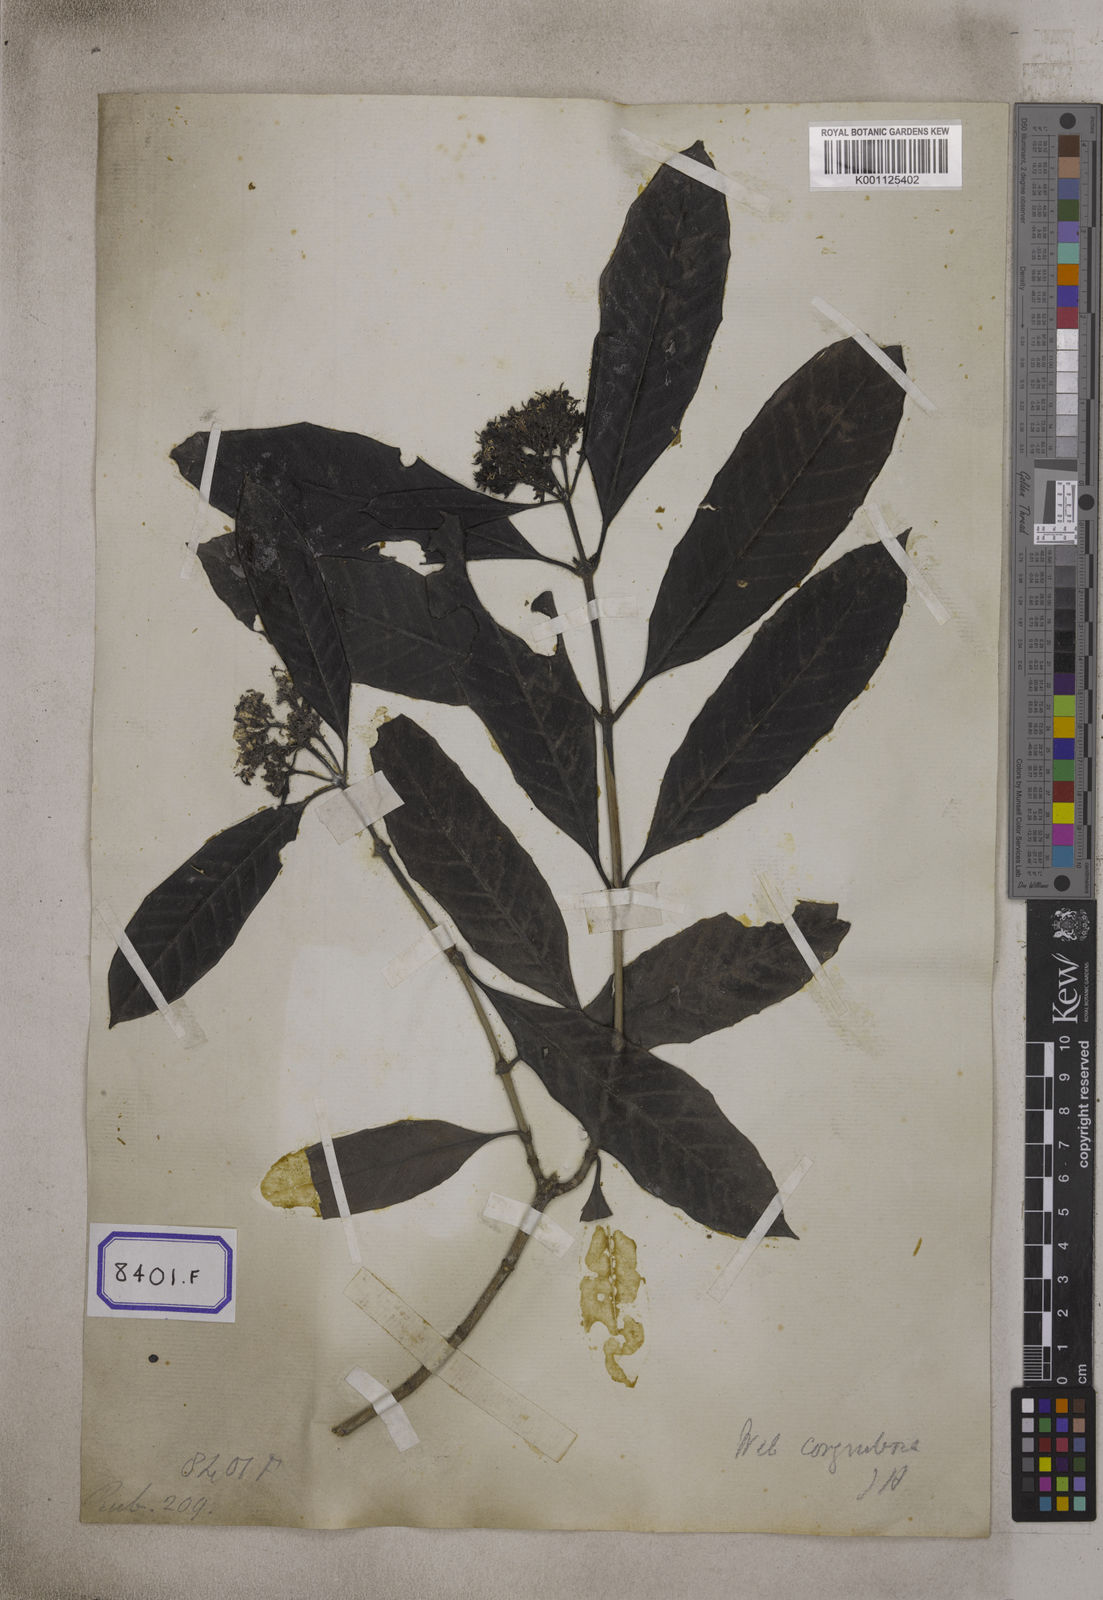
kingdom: Plantae
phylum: Tracheophyta
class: Magnoliopsida
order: Gentianales
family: Rubiaceae
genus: Tarenna
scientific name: Tarenna asiatica
